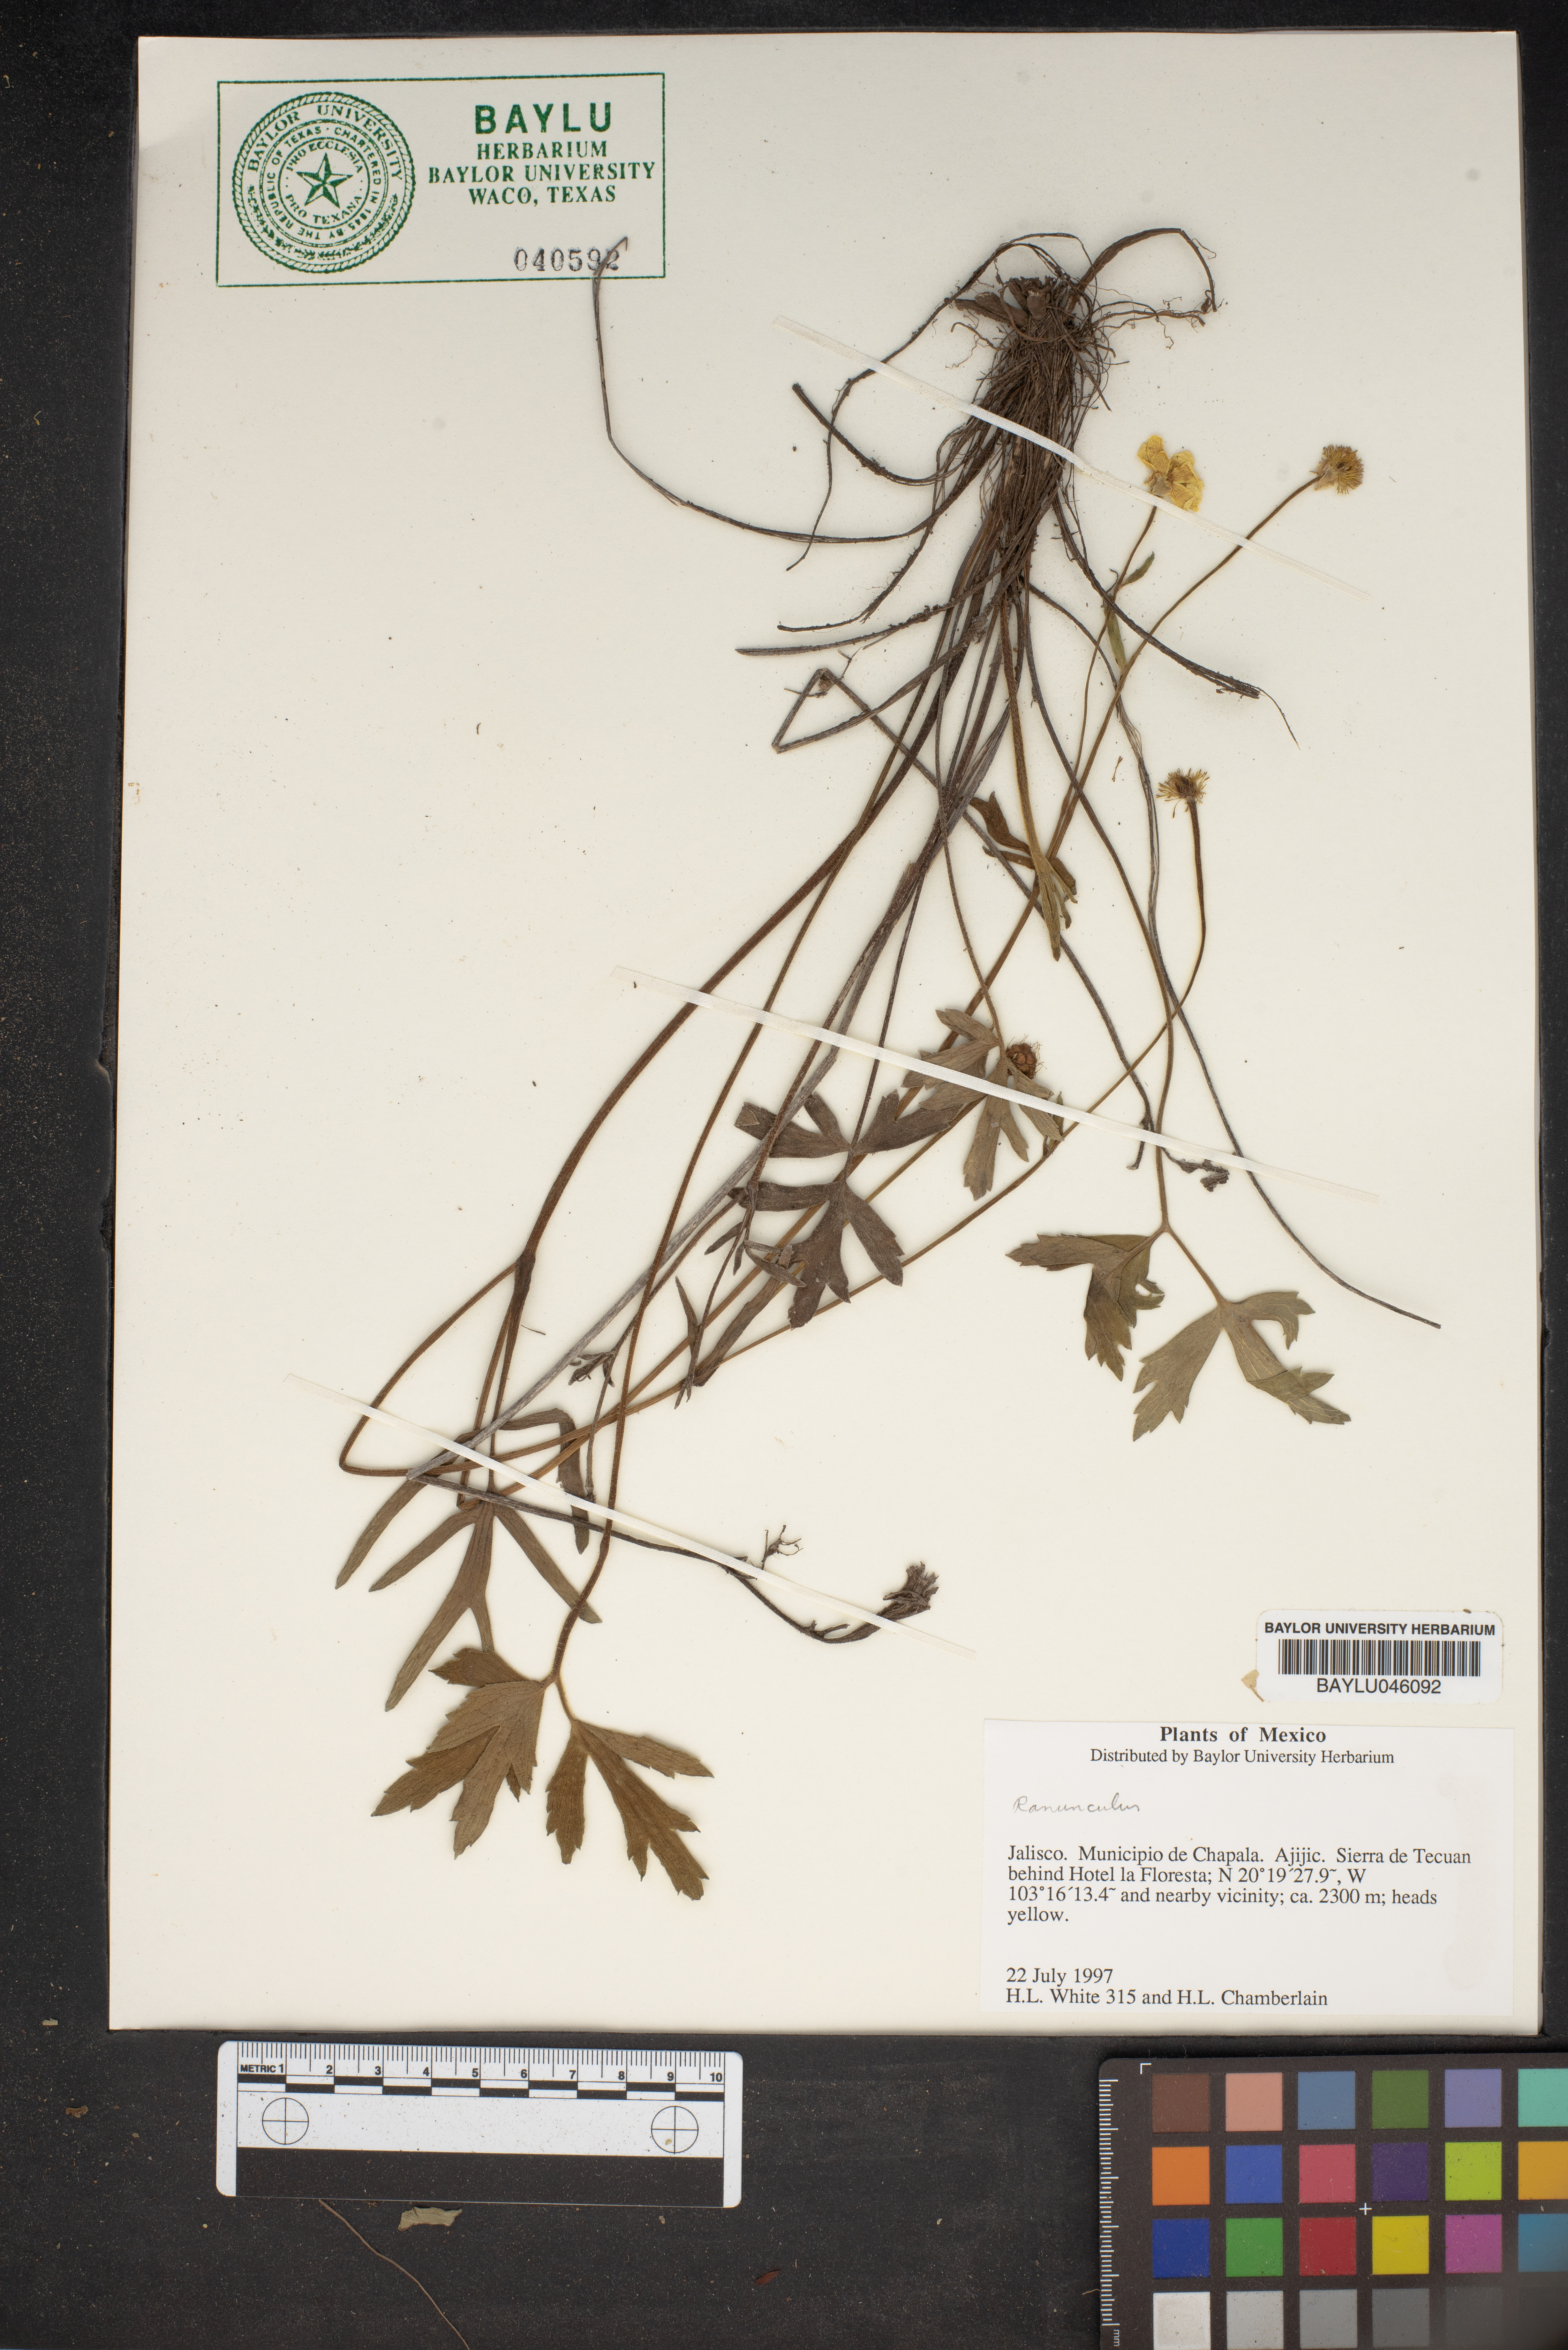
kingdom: Plantae
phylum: Tracheophyta
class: Magnoliopsida
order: Ranunculales
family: Ranunculaceae
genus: Ranunculus
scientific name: Ranunculus
